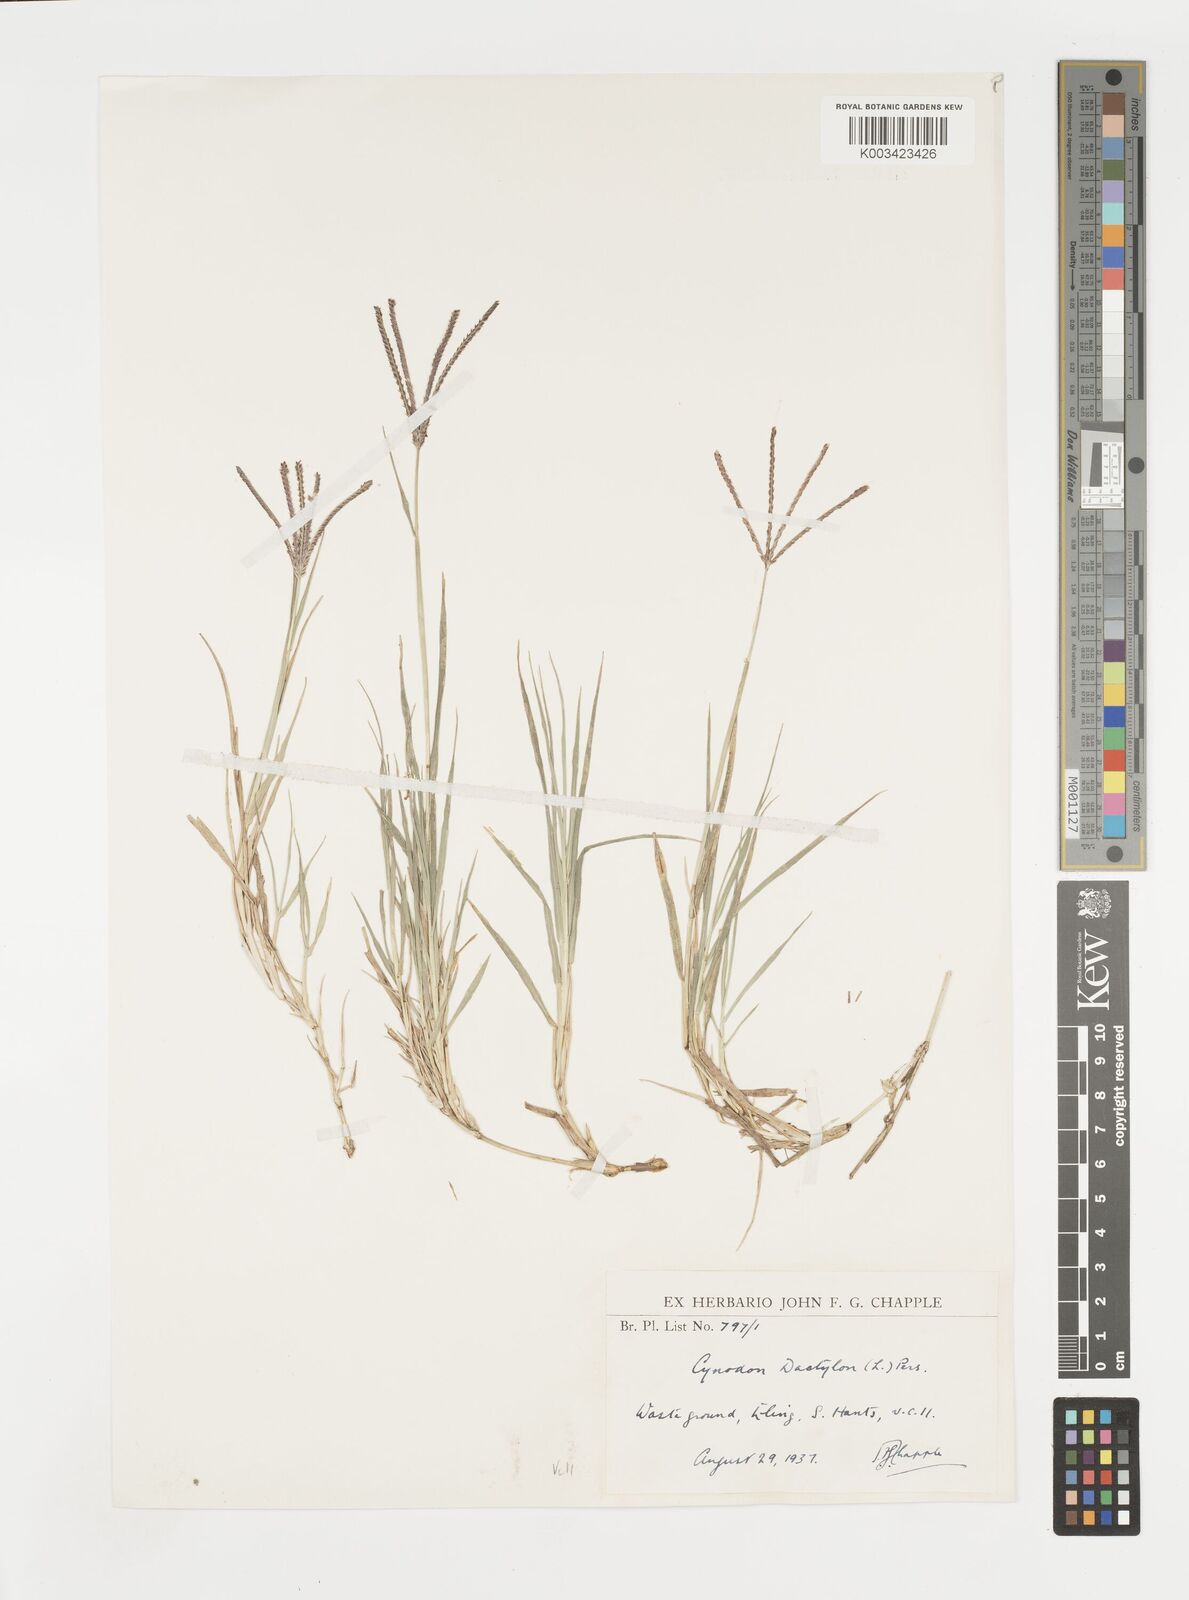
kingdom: Plantae
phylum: Tracheophyta
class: Liliopsida
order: Poales
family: Poaceae
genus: Cynodon
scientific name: Cynodon dactylon
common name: Bermuda grass
